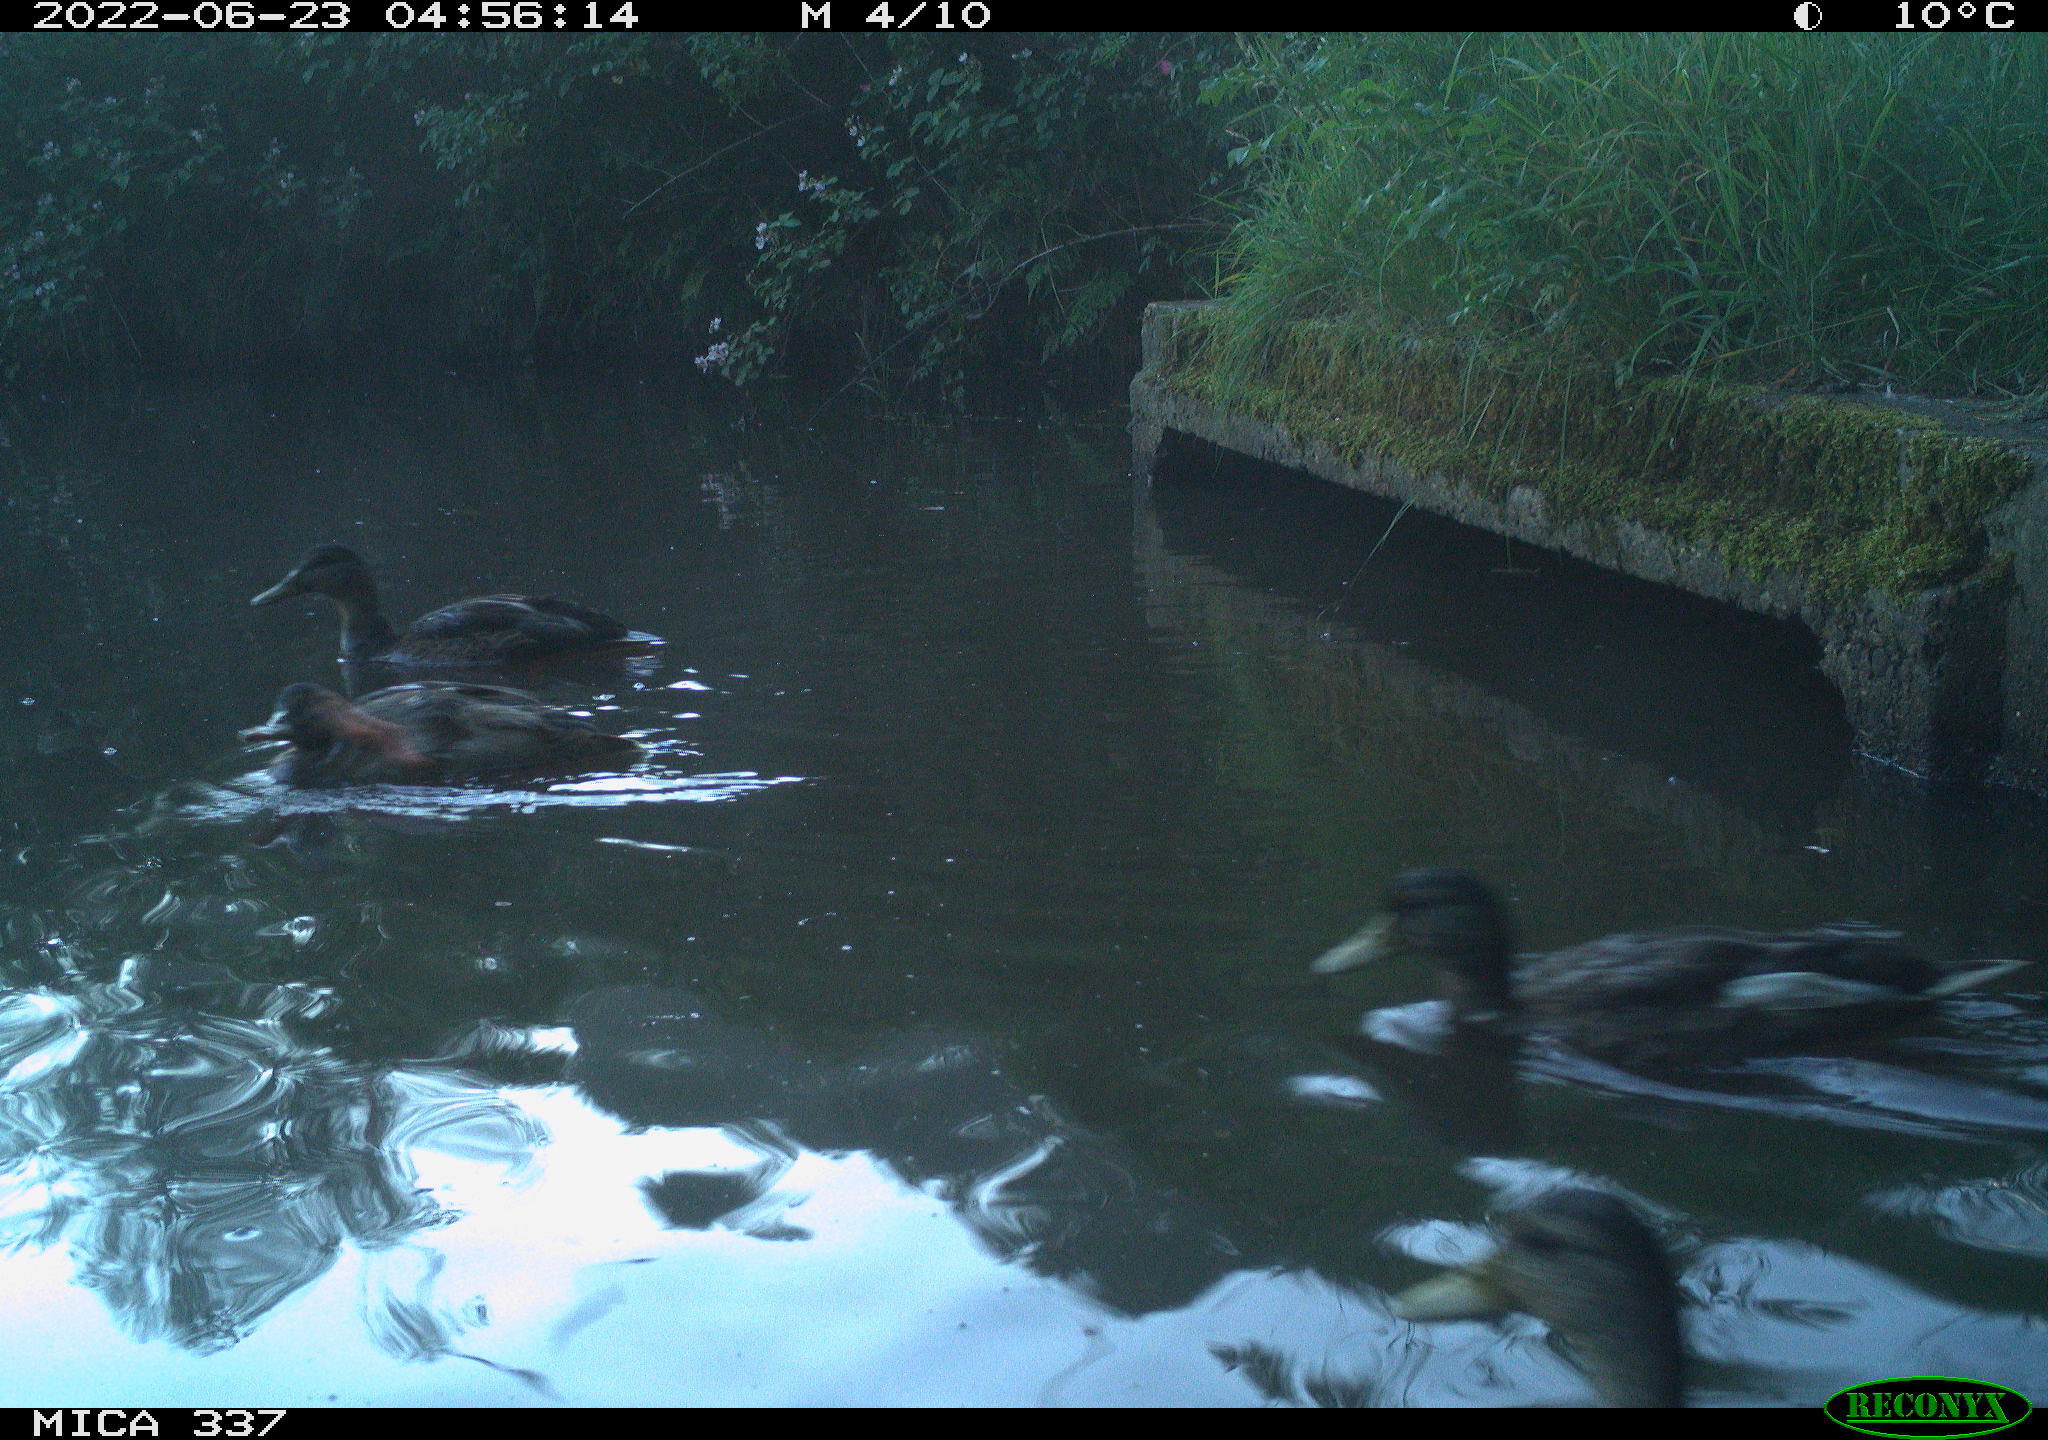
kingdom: Animalia
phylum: Chordata
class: Aves
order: Anseriformes
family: Anatidae
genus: Anas
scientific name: Anas platyrhynchos
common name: Mallard
